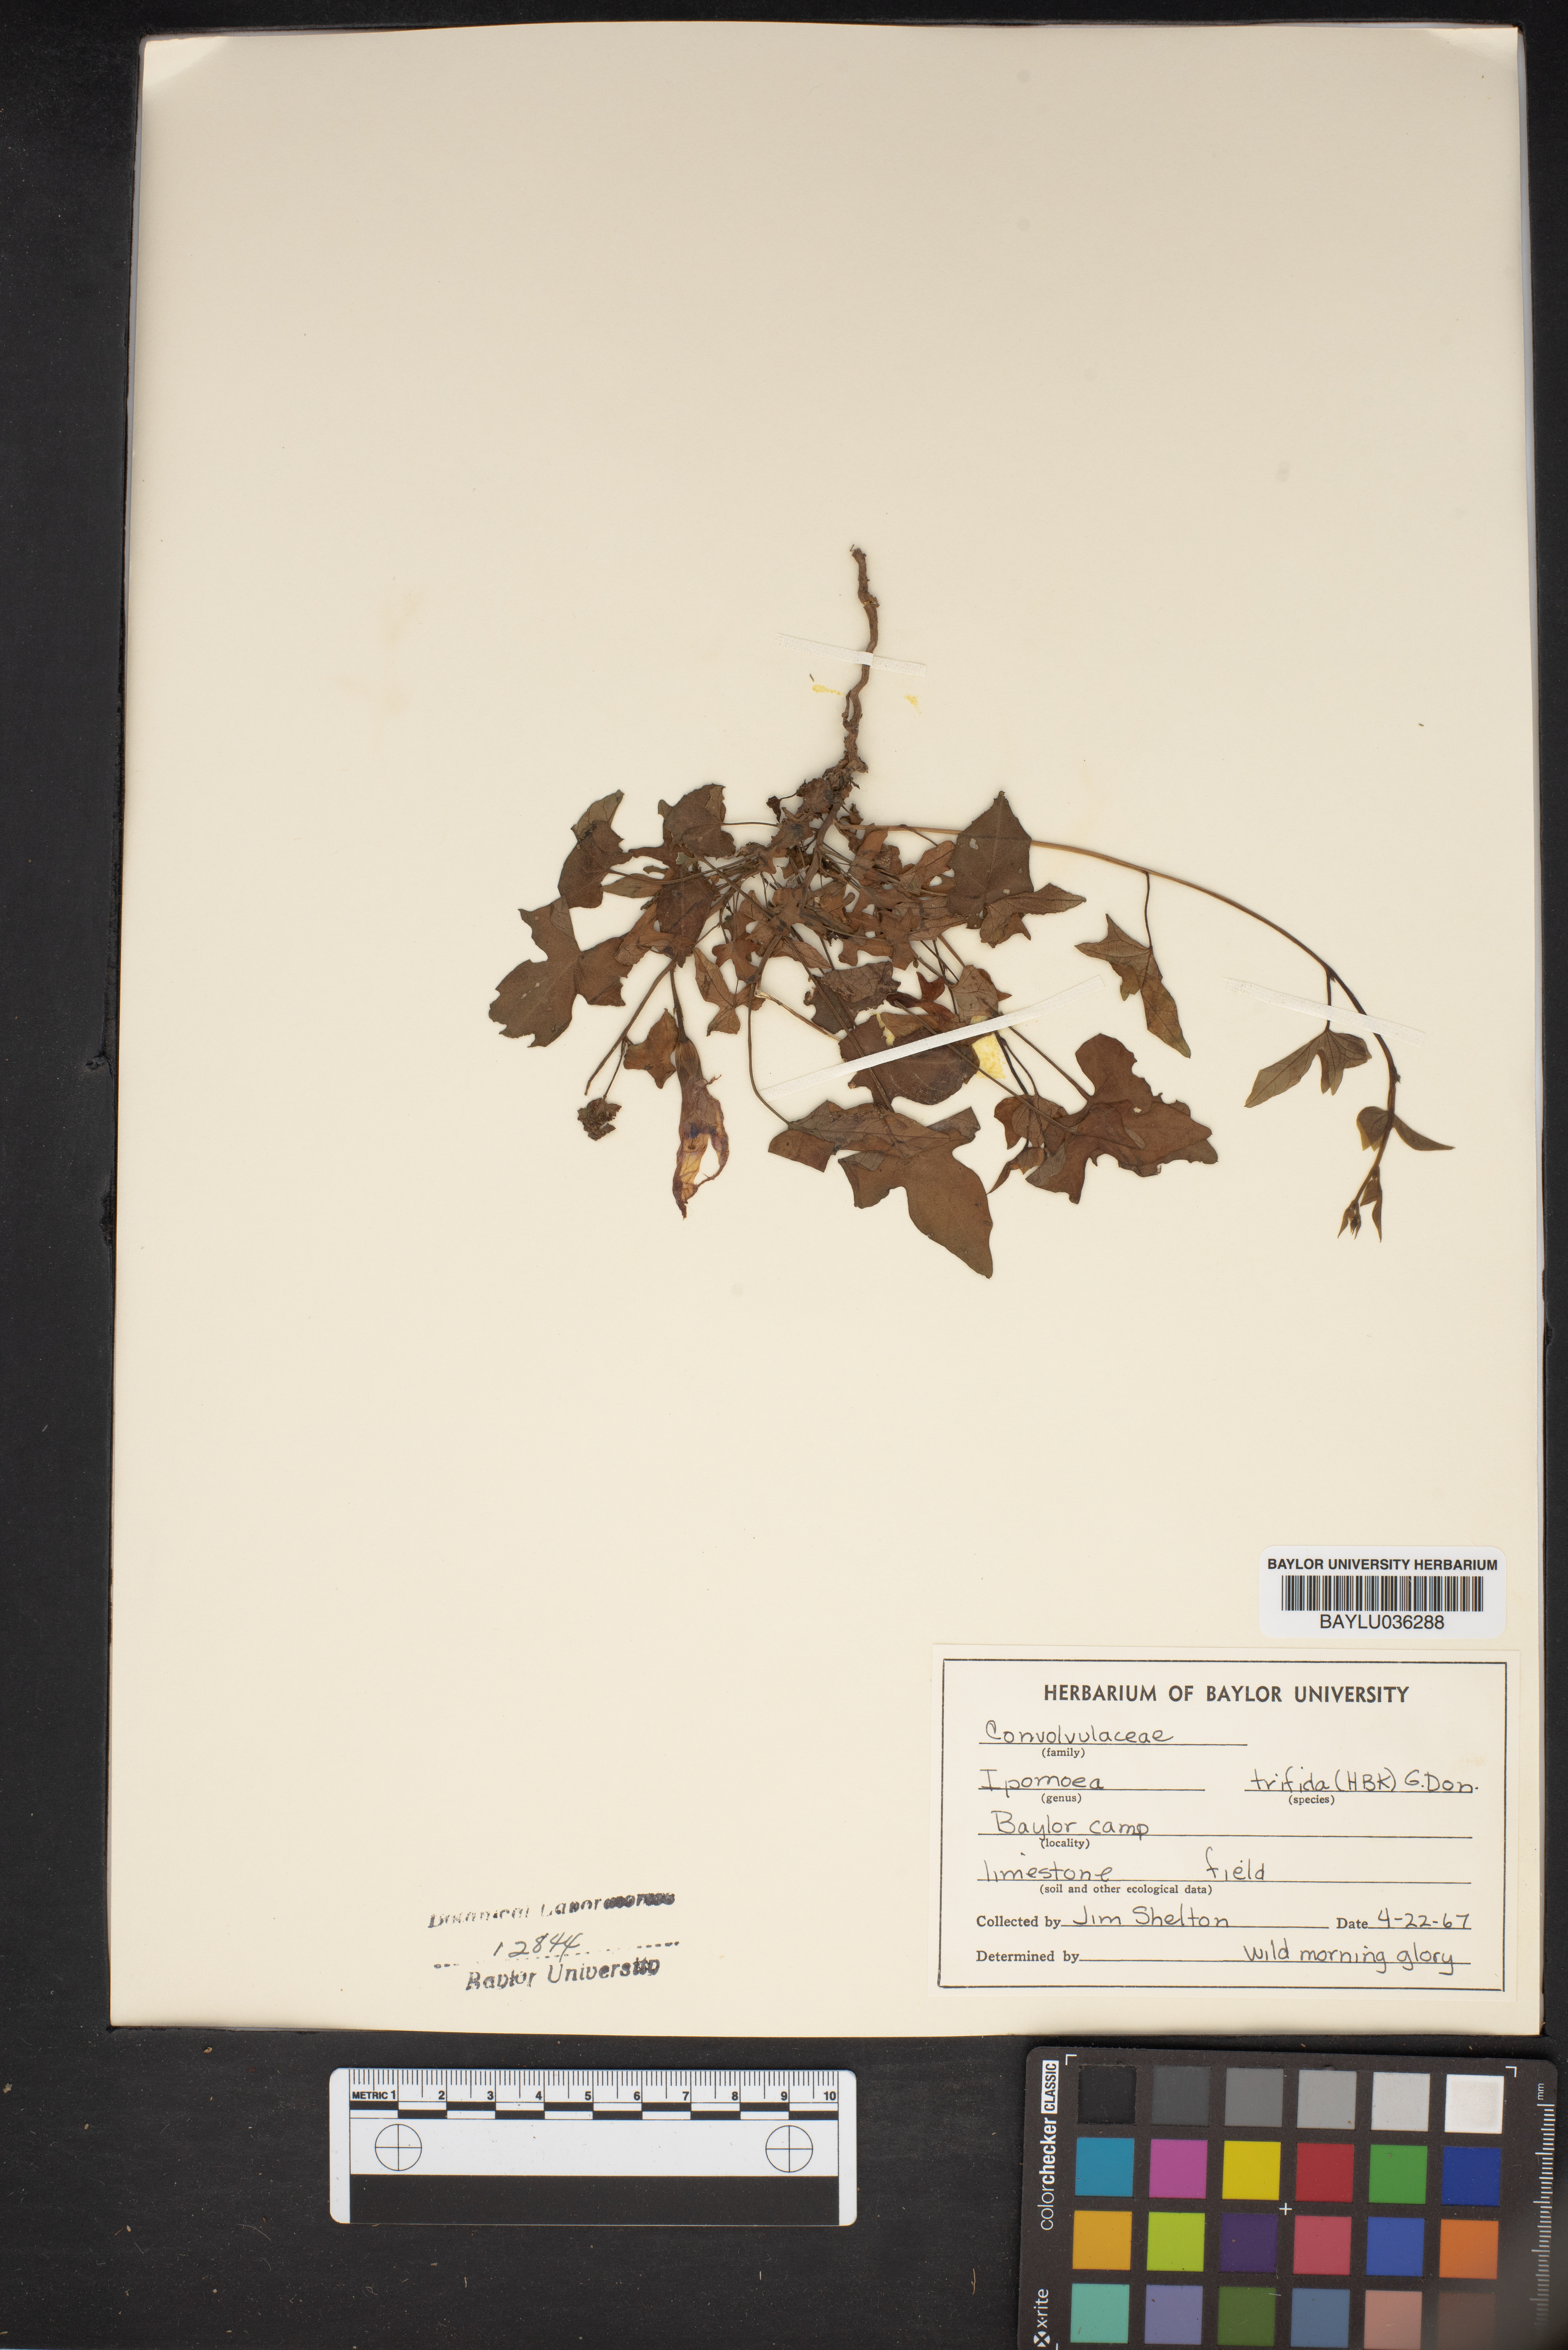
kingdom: Plantae
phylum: Tracheophyta
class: Magnoliopsida
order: Solanales
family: Convolvulaceae
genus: Ipomoea
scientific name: Ipomoea trifida
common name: Cotton morningglory
